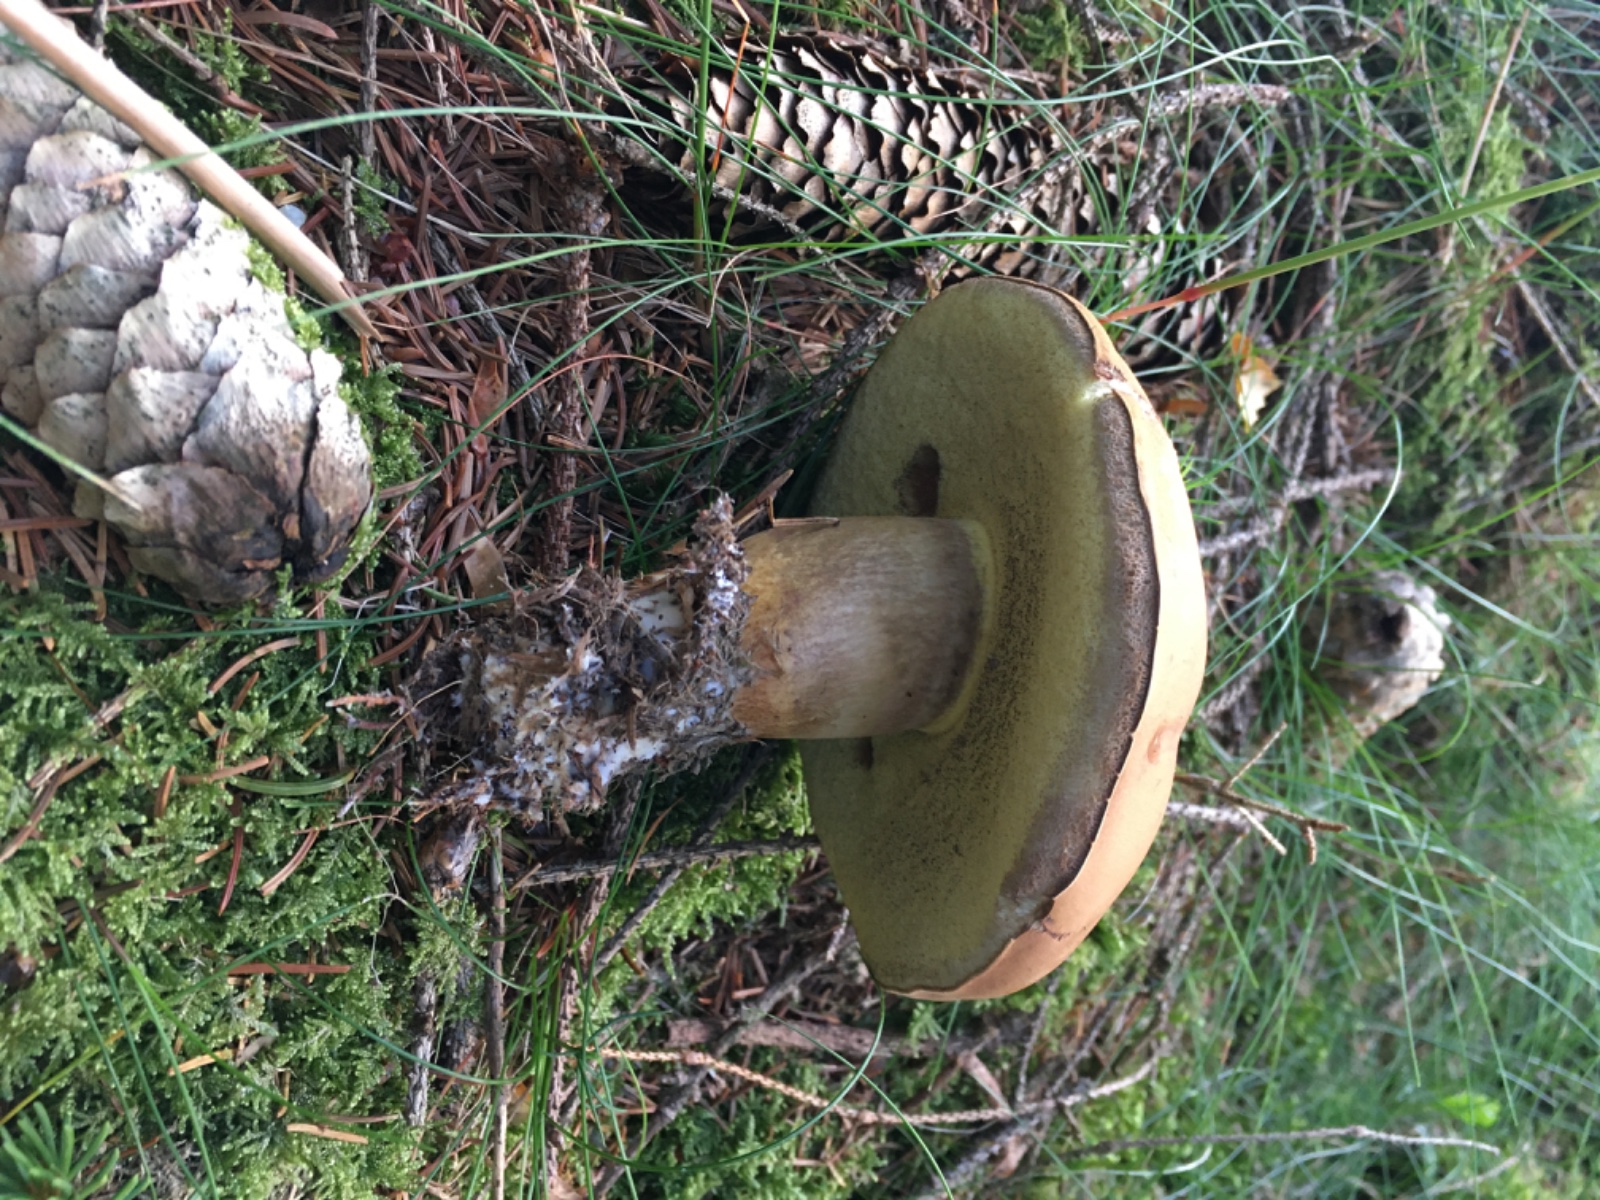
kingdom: Fungi
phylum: Basidiomycota
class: Agaricomycetes
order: Boletales
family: Boletaceae
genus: Imleria
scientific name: Imleria badia
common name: brunstokket rørhat
